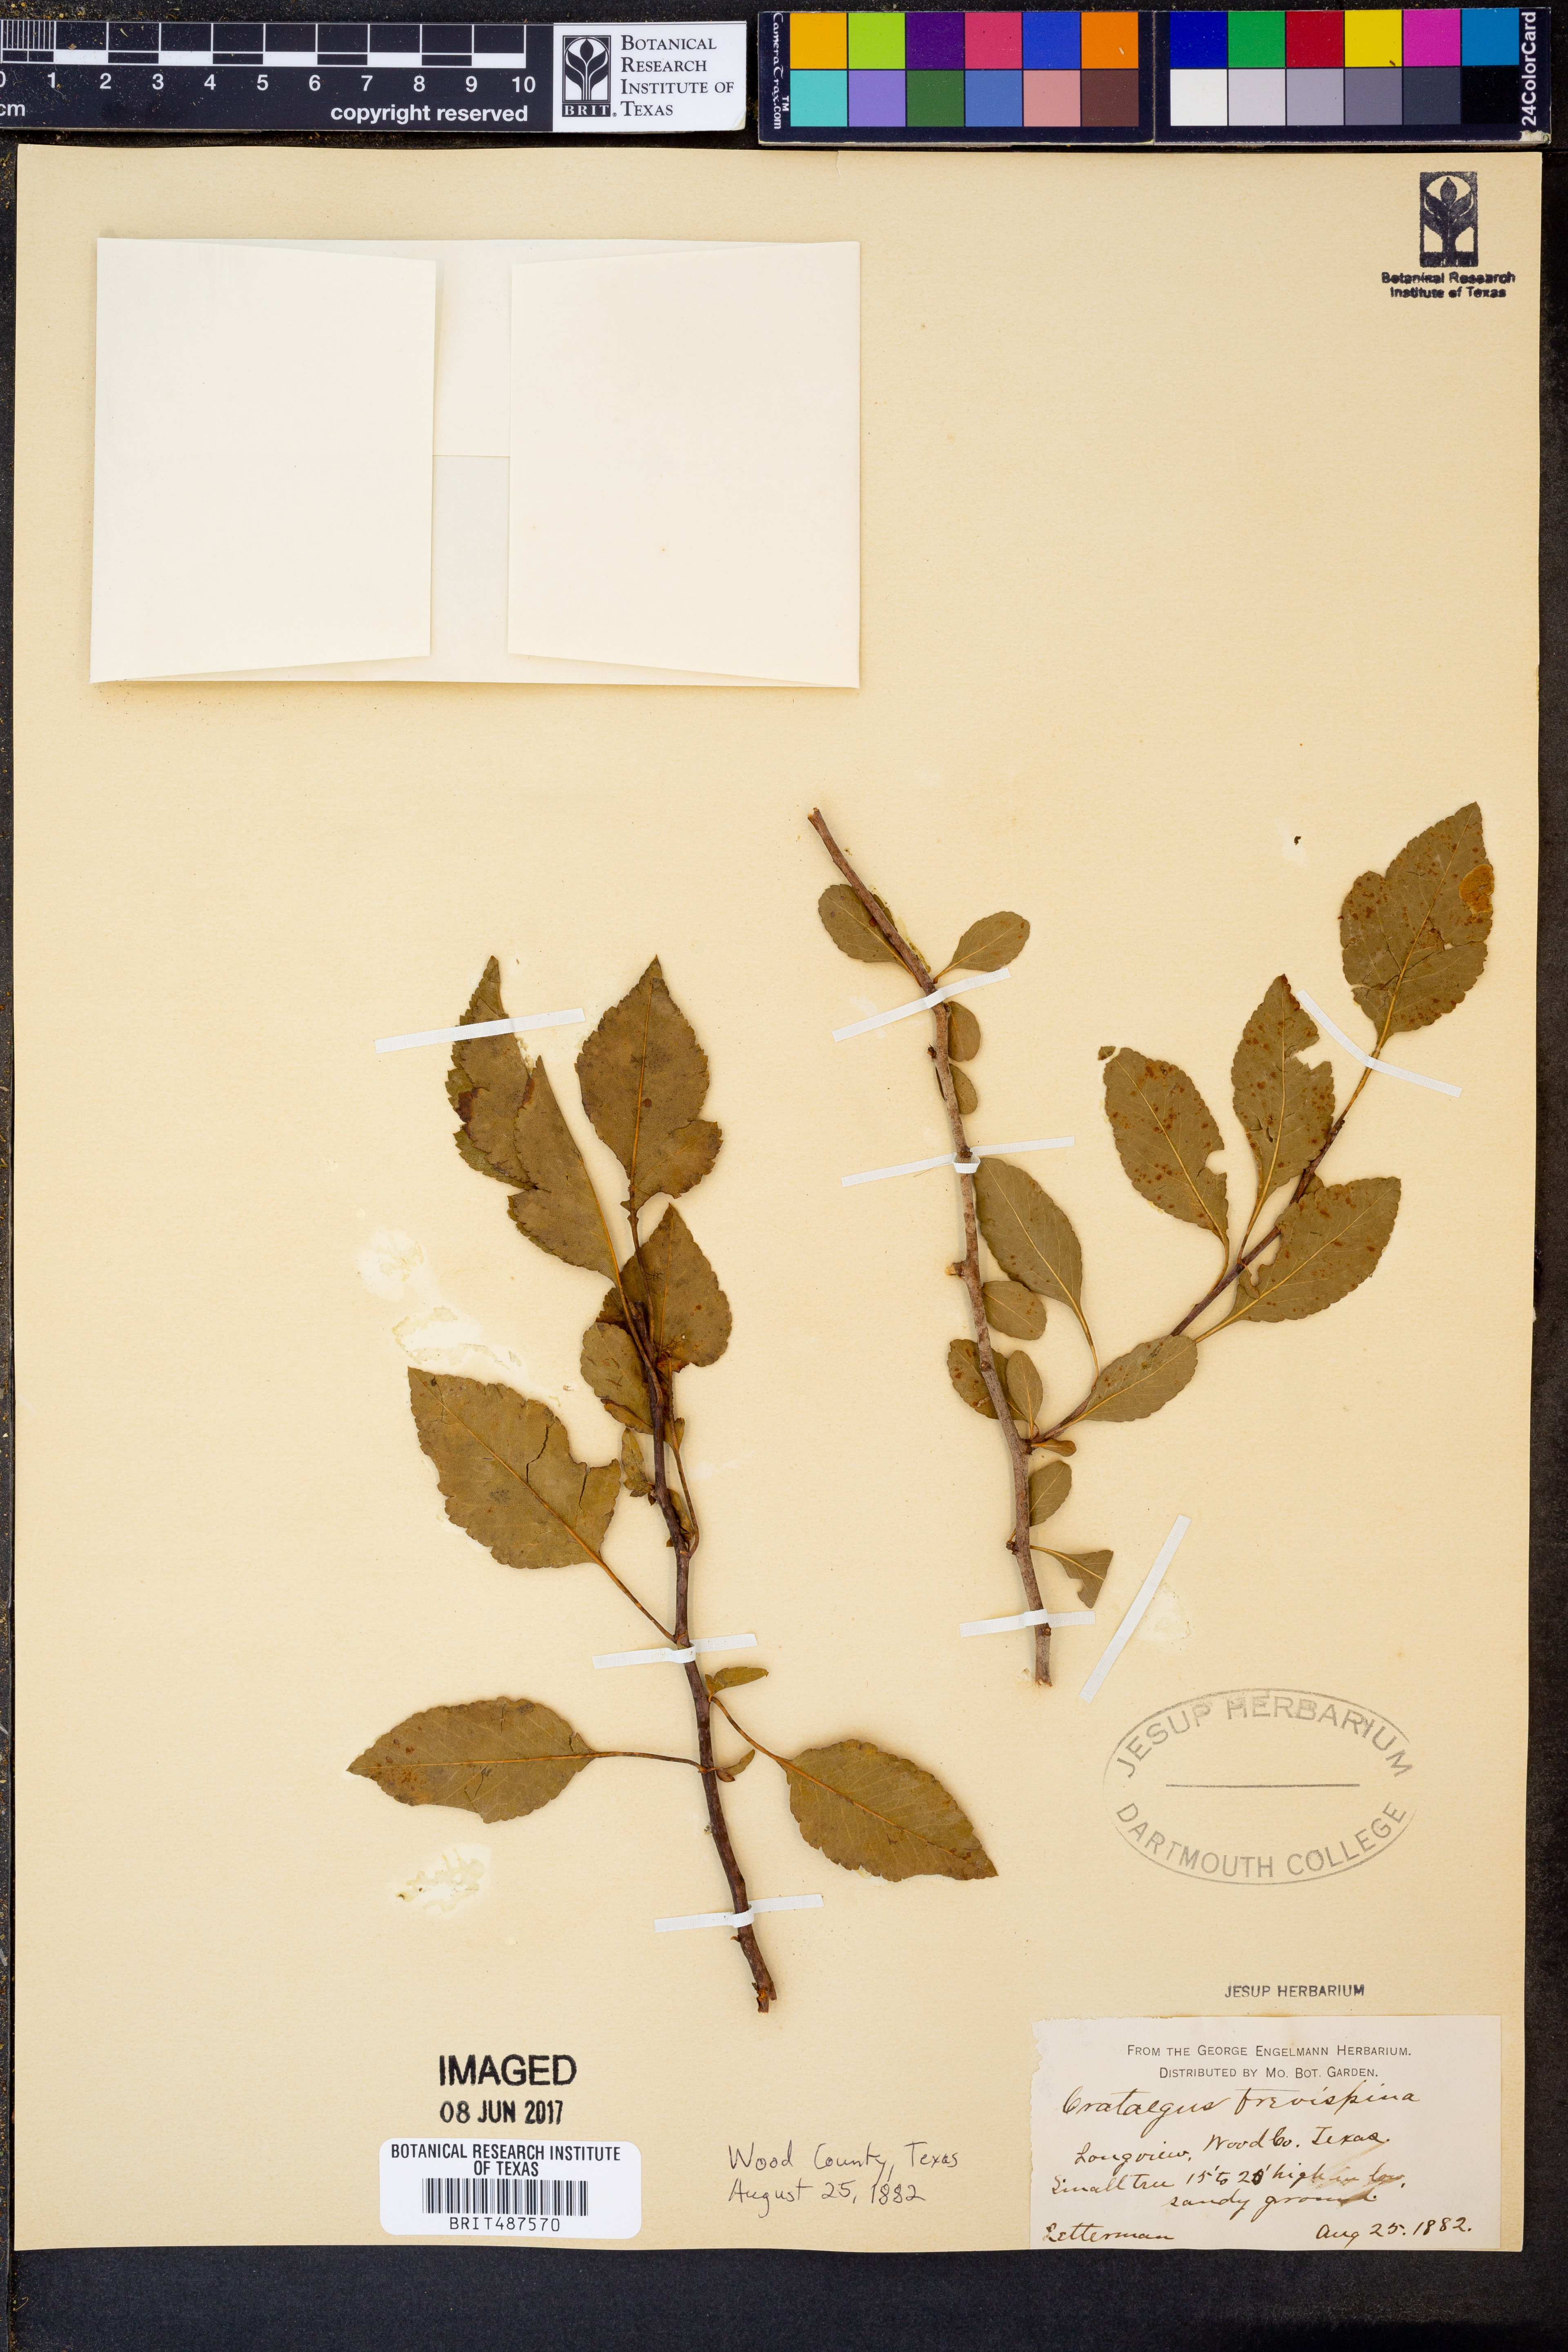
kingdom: Plantae
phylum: Tracheophyta
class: Magnoliopsida
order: Rosales
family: Rosaceae
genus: Crataegus
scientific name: Crataegus monogyna
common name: Hawthorn
